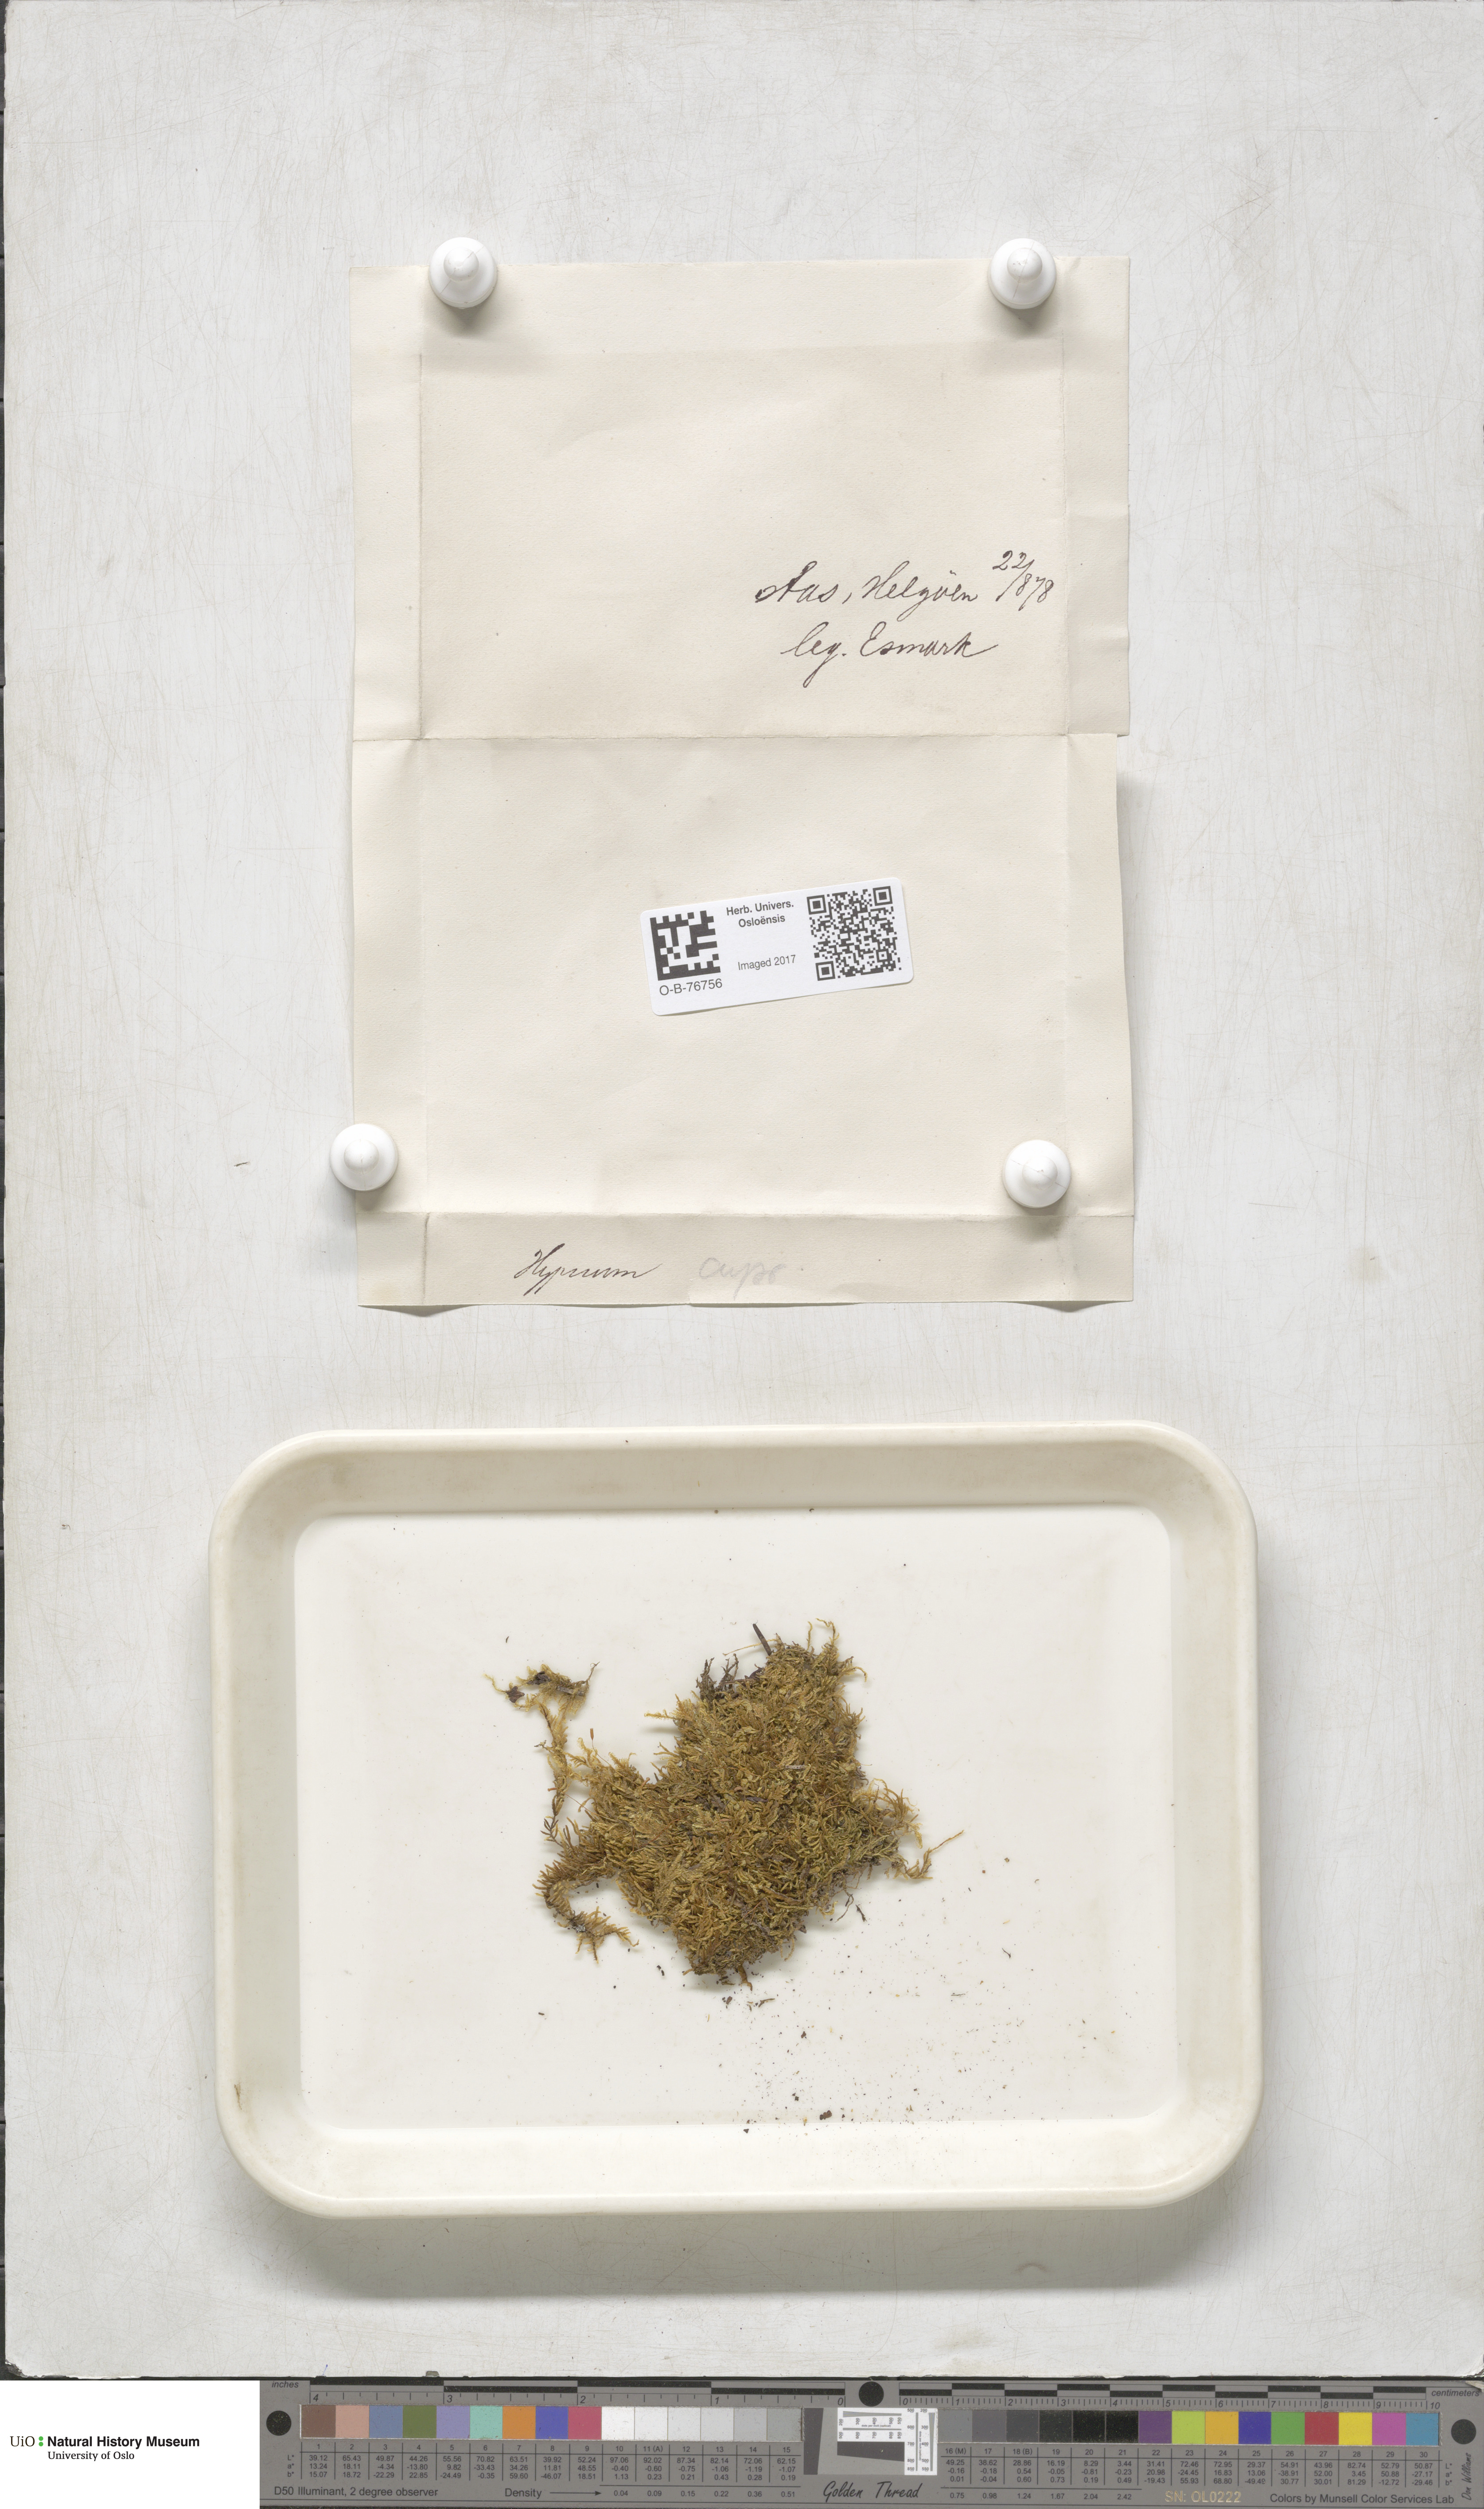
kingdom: Plantae
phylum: Bryophyta
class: Bryopsida
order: Hypnales
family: Hypnaceae
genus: Hypnum
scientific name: Hypnum cupressiforme
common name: Cypress-leaved plait-moss
